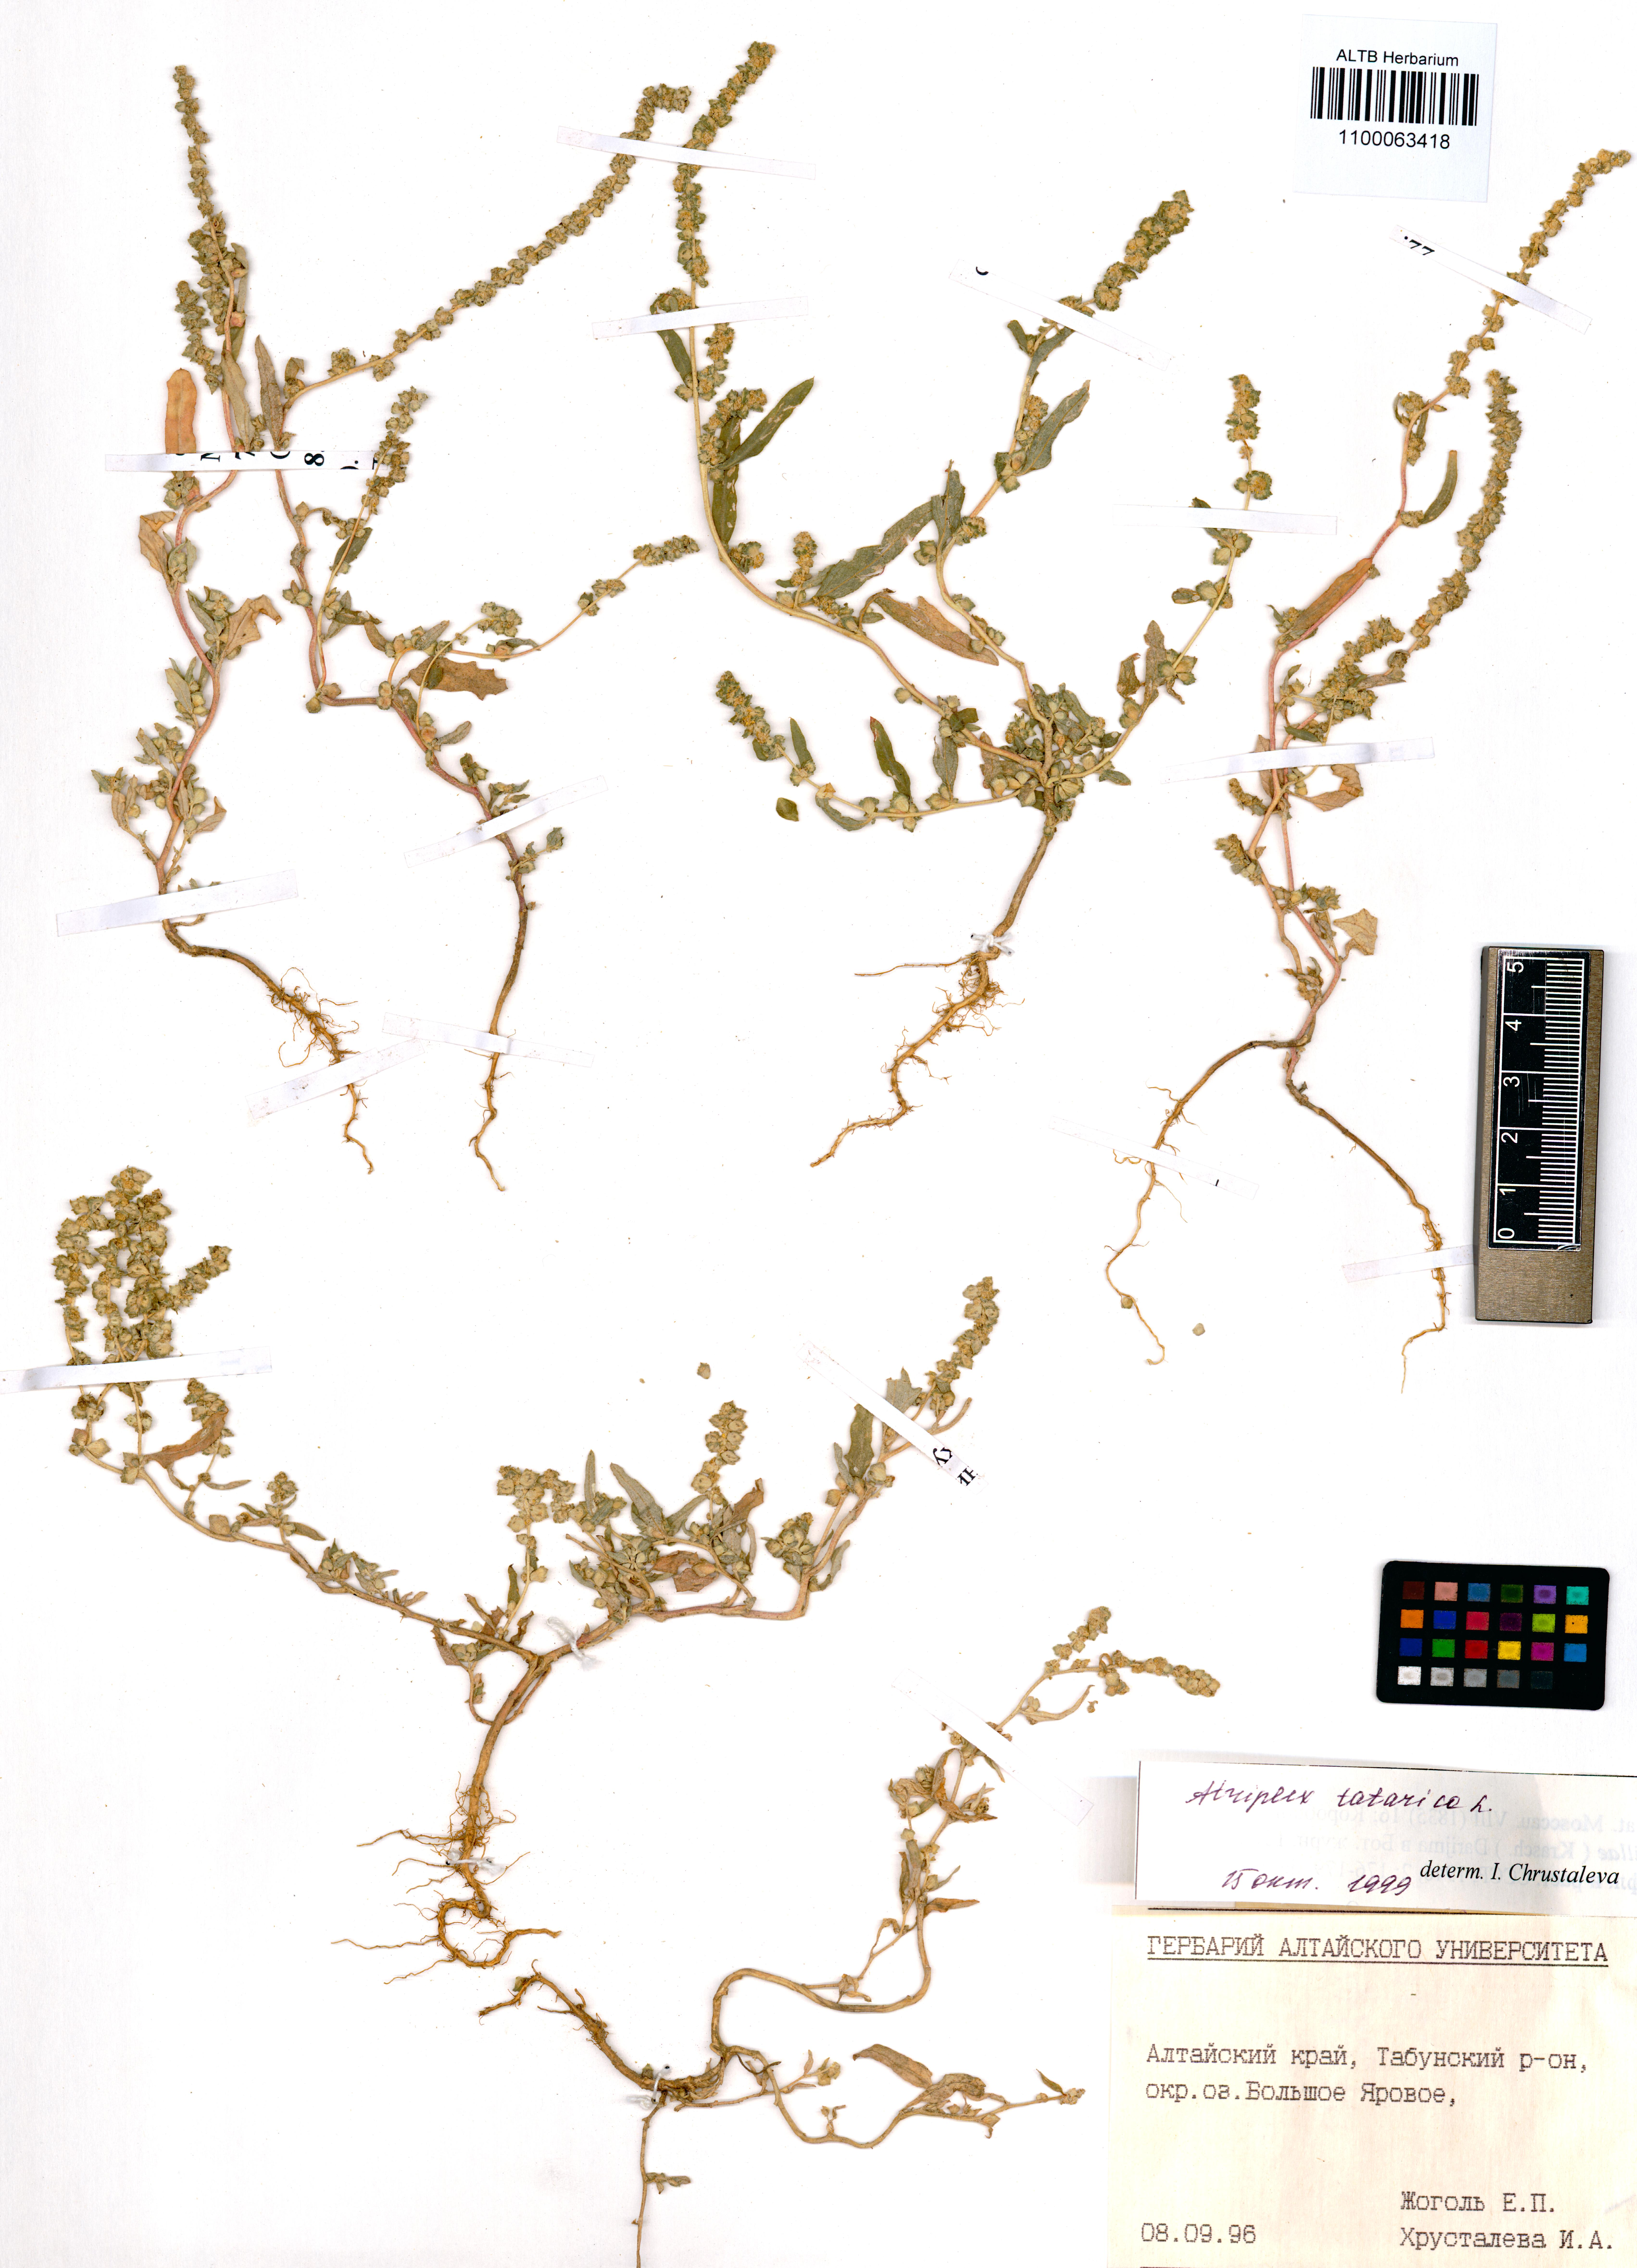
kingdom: Plantae
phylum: Tracheophyta
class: Magnoliopsida
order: Caryophyllales
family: Amaranthaceae
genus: Atriplex
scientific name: Atriplex tatarica
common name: Tatarian orache
